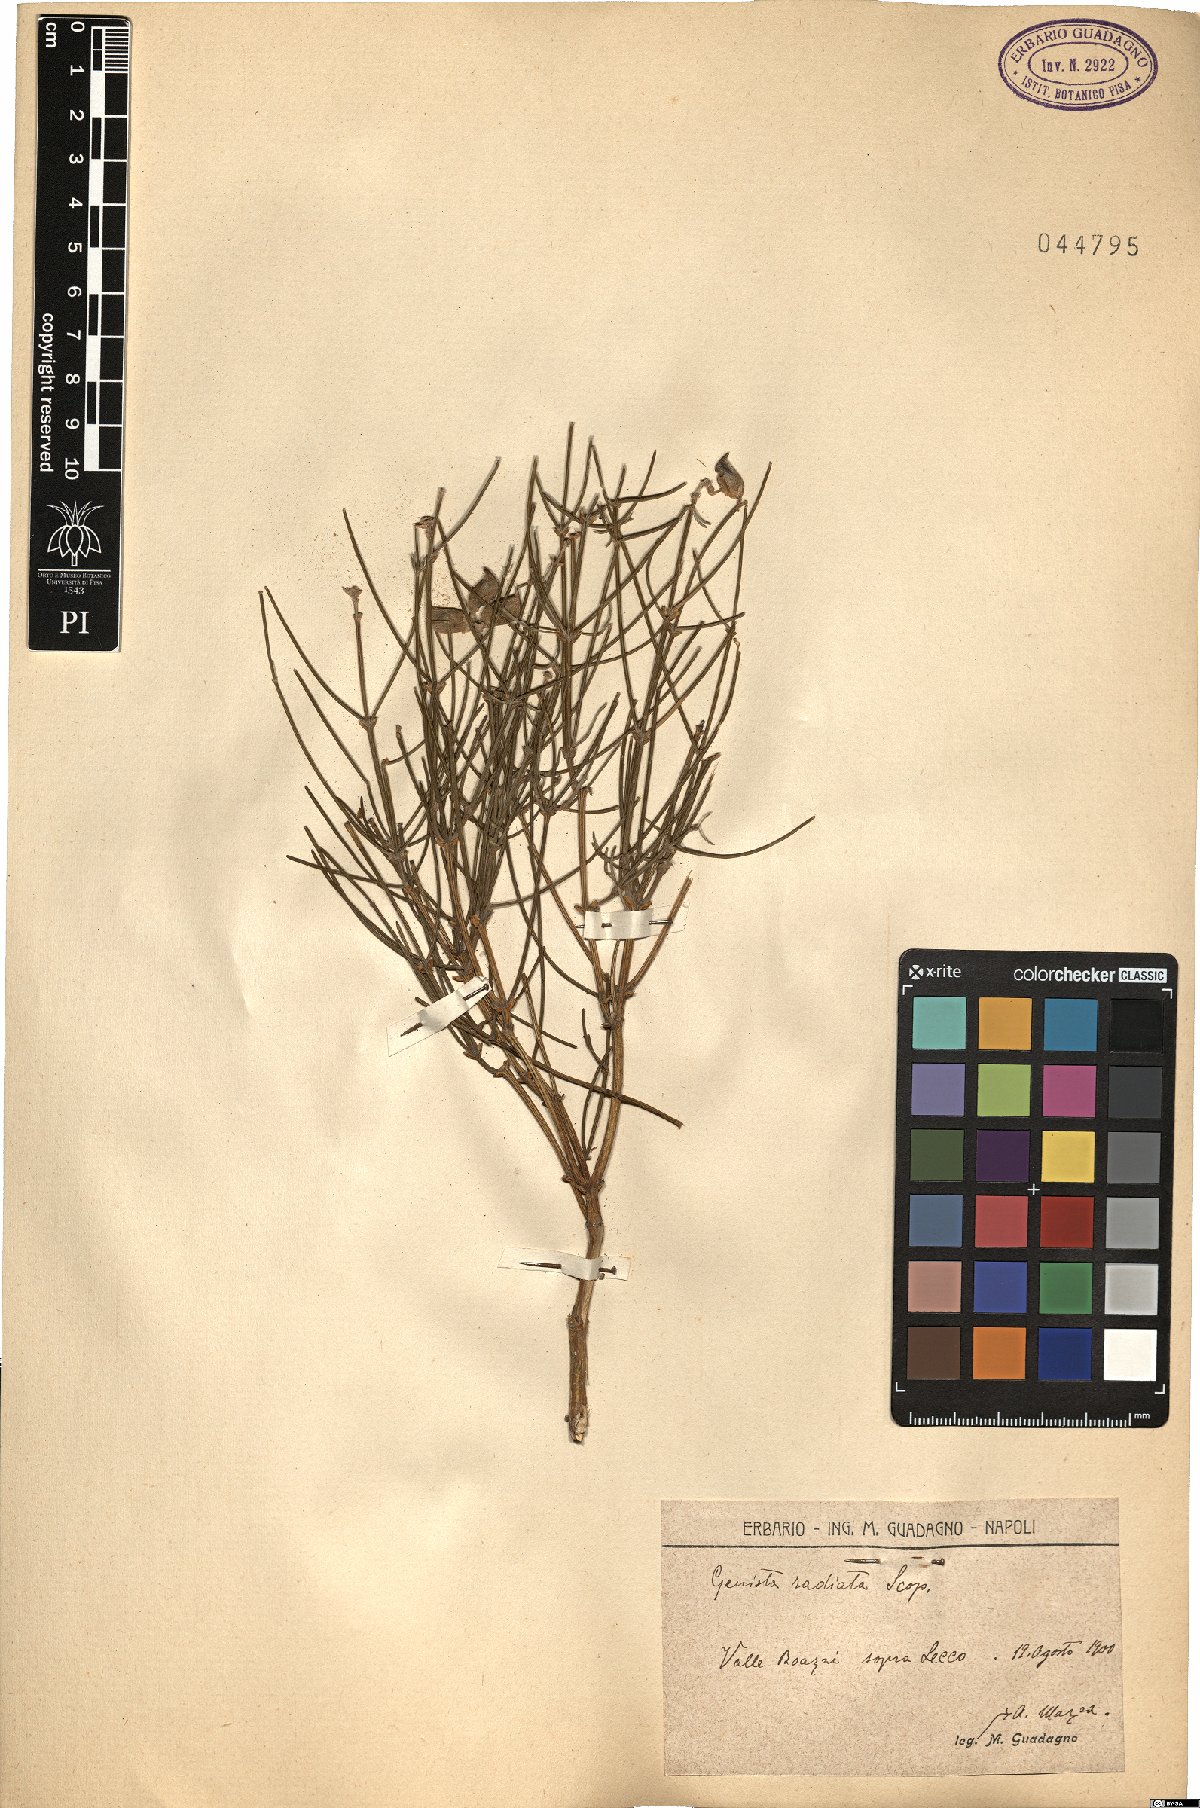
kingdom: Plantae
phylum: Tracheophyta
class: Magnoliopsida
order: Fabales
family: Fabaceae
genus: Genista
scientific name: Genista radiata
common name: Southern greenweed
